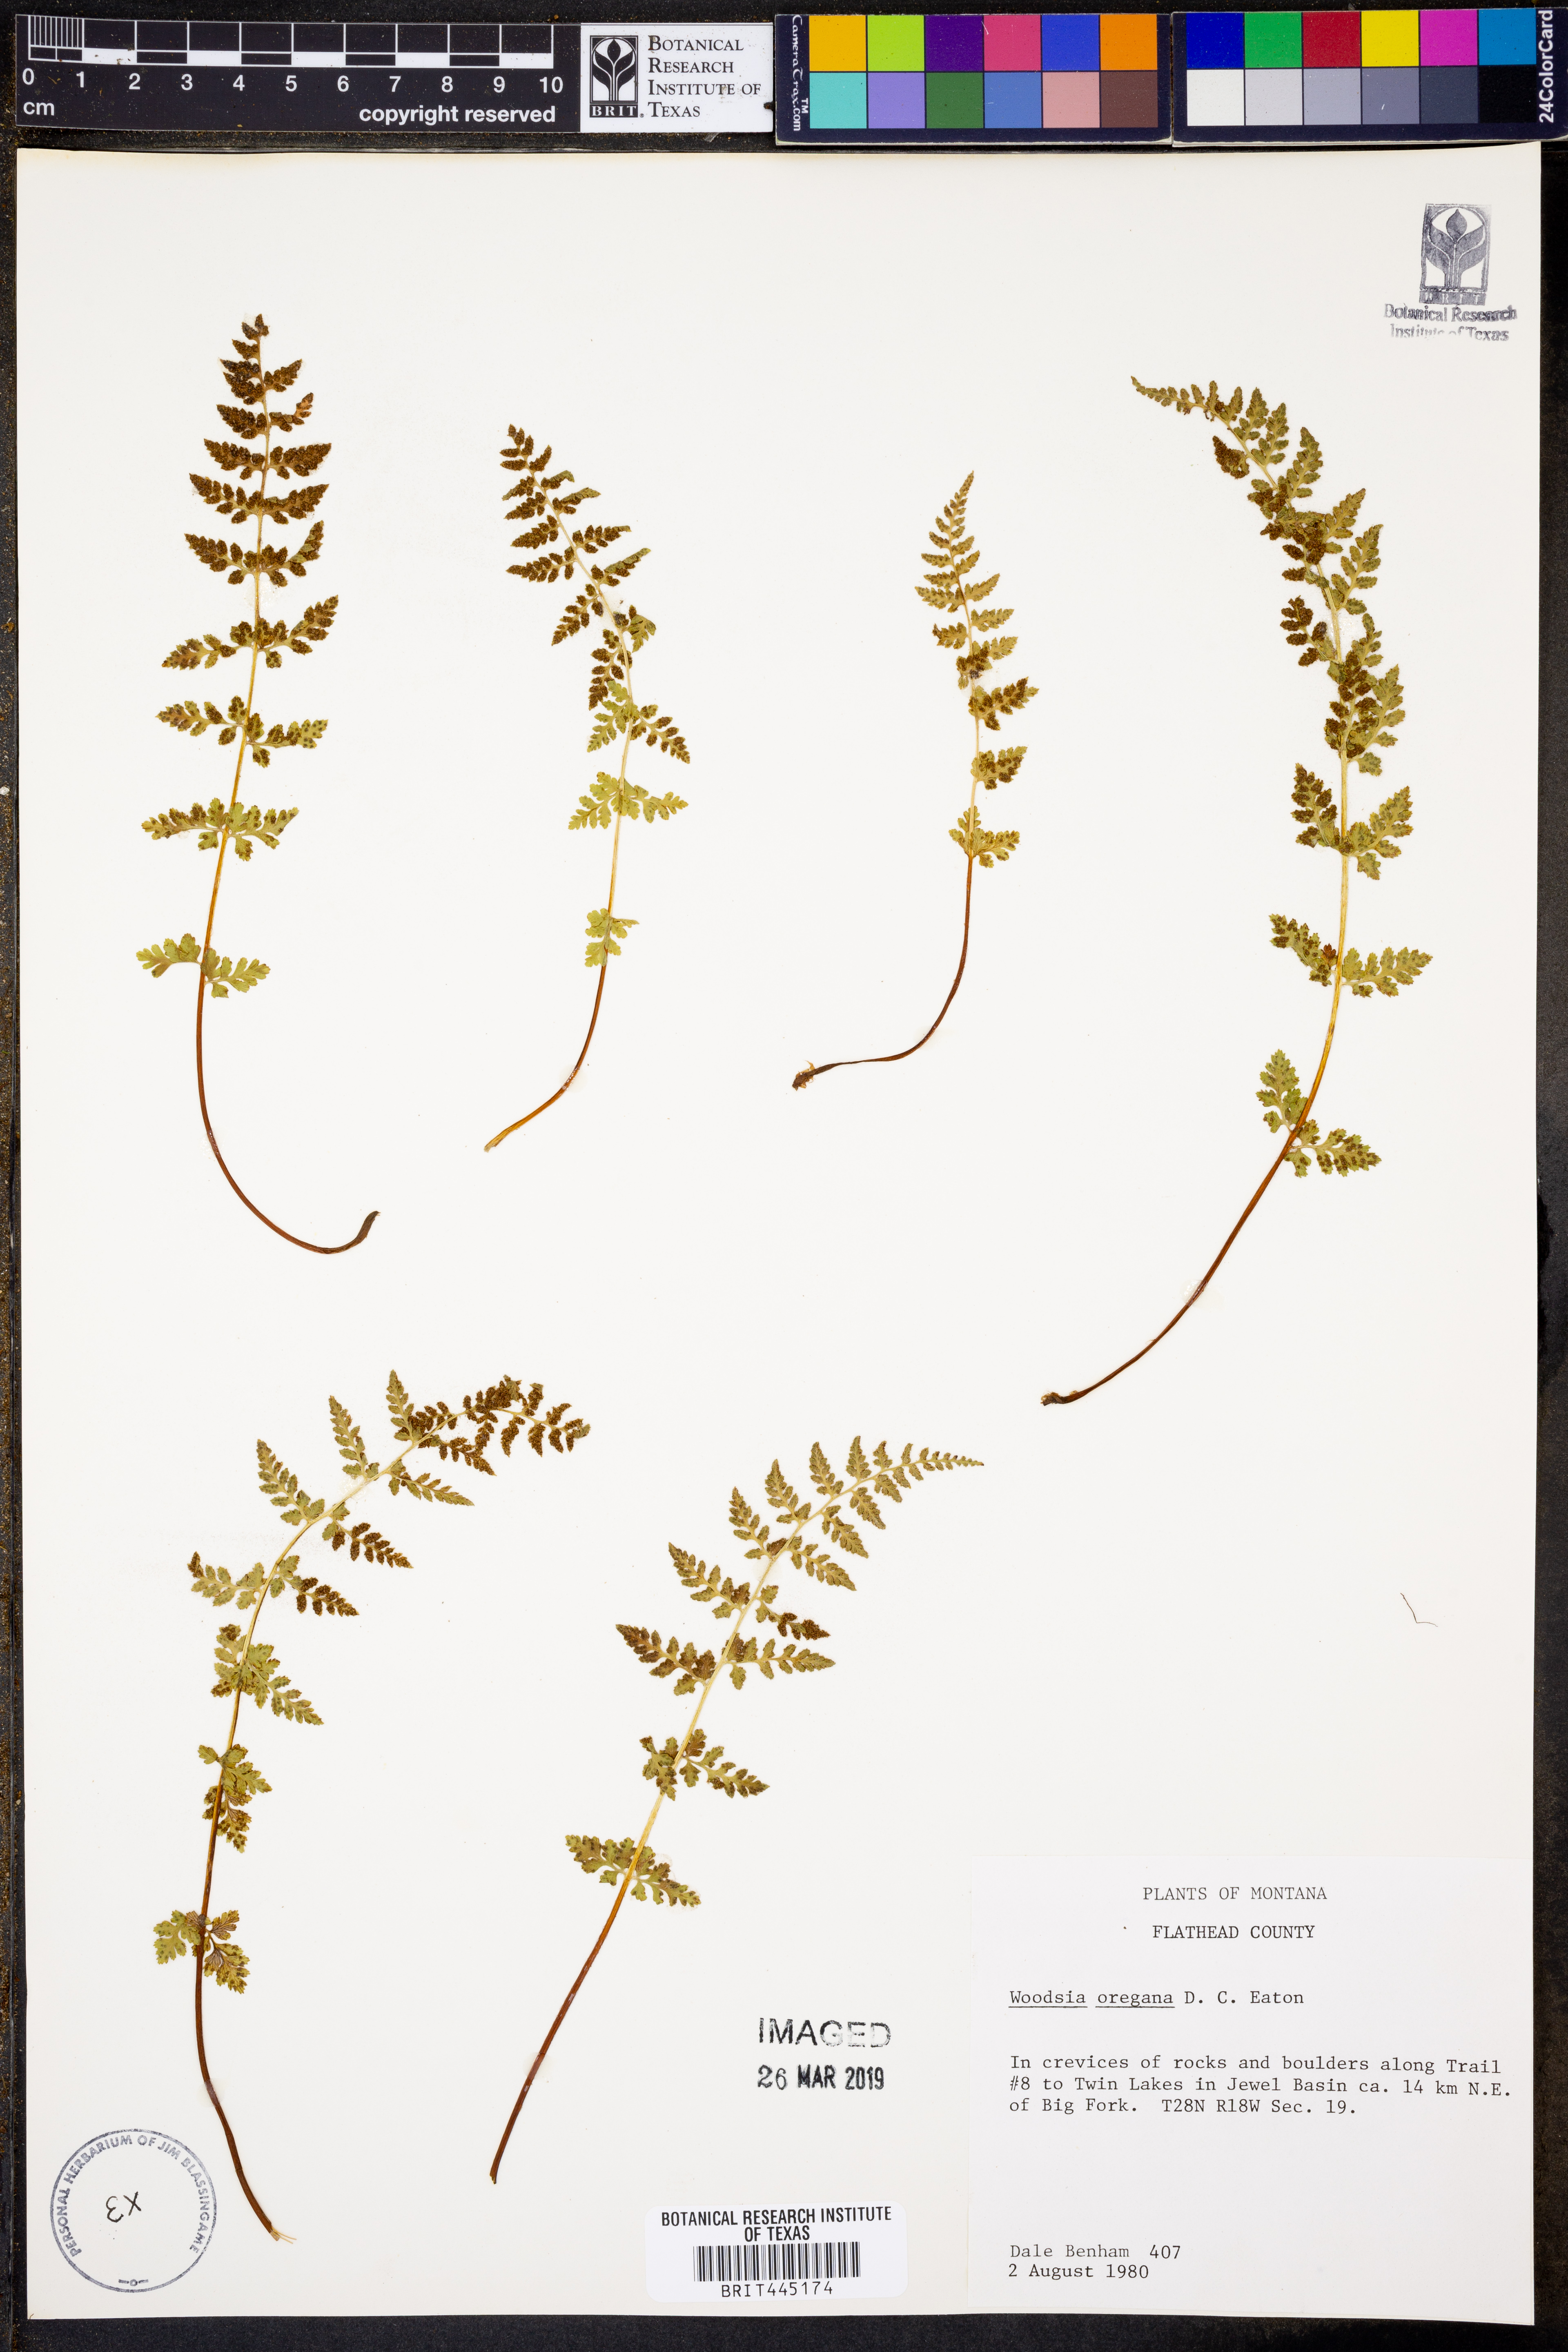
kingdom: Plantae
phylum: Tracheophyta
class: Polypodiopsida
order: Polypodiales
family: Woodsiaceae
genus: Physematium
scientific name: Physematium oreganum
